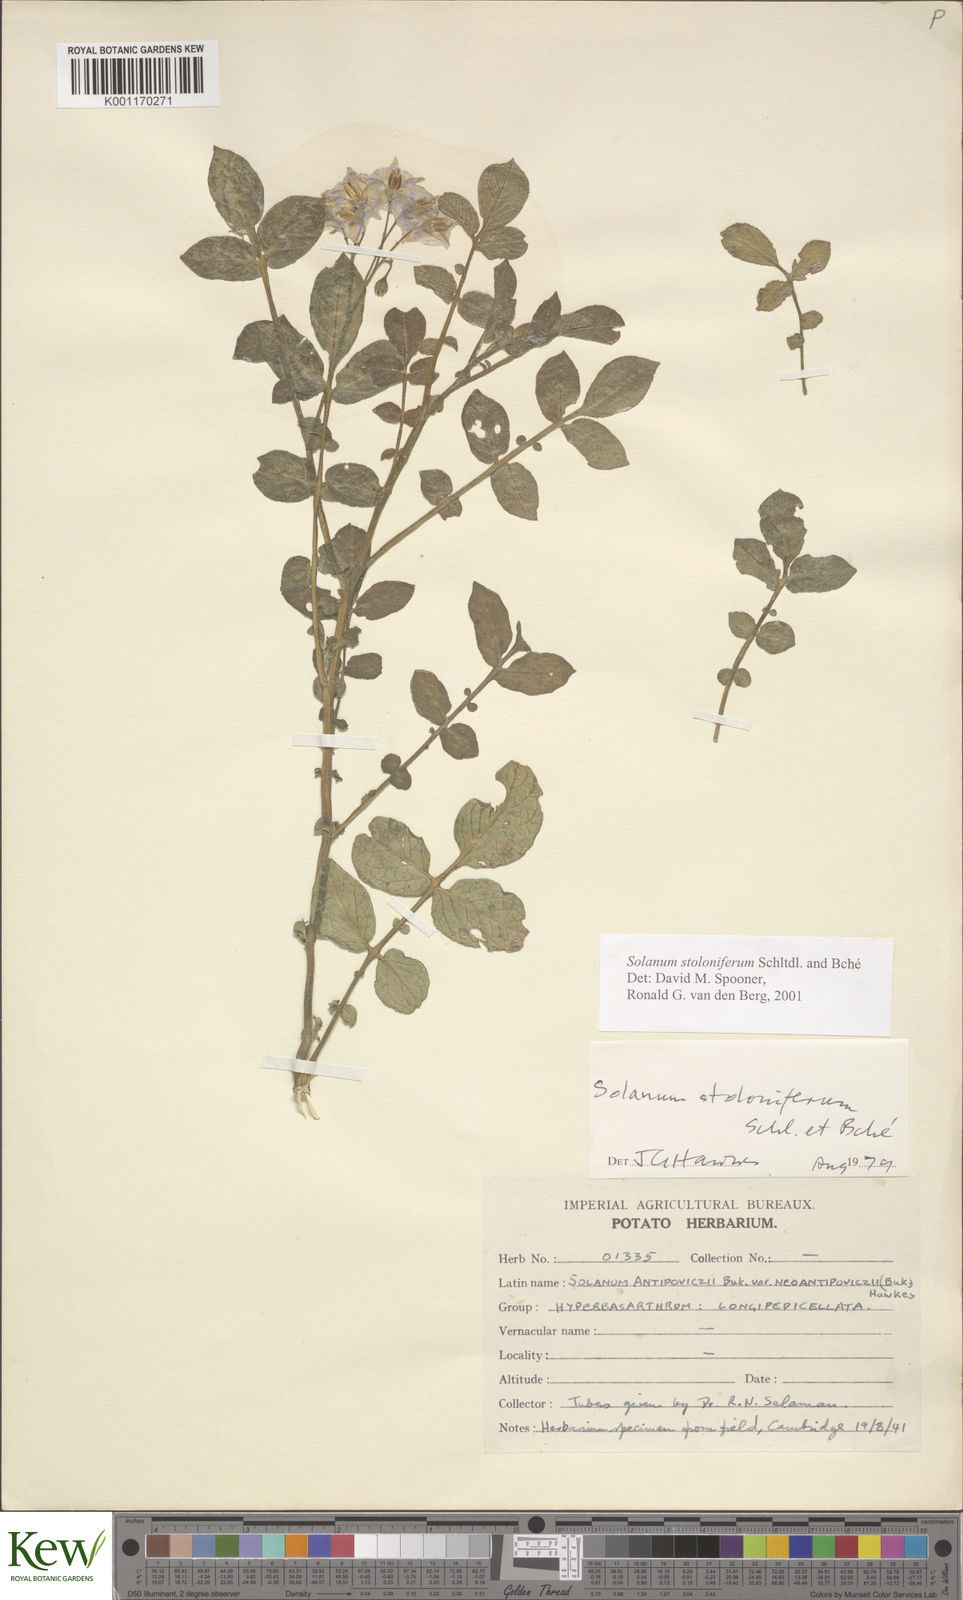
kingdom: Plantae
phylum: Tracheophyta
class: Magnoliopsida
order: Solanales
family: Solanaceae
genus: Solanum
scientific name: Solanum stoloniferum
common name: Fendler's nighshade
